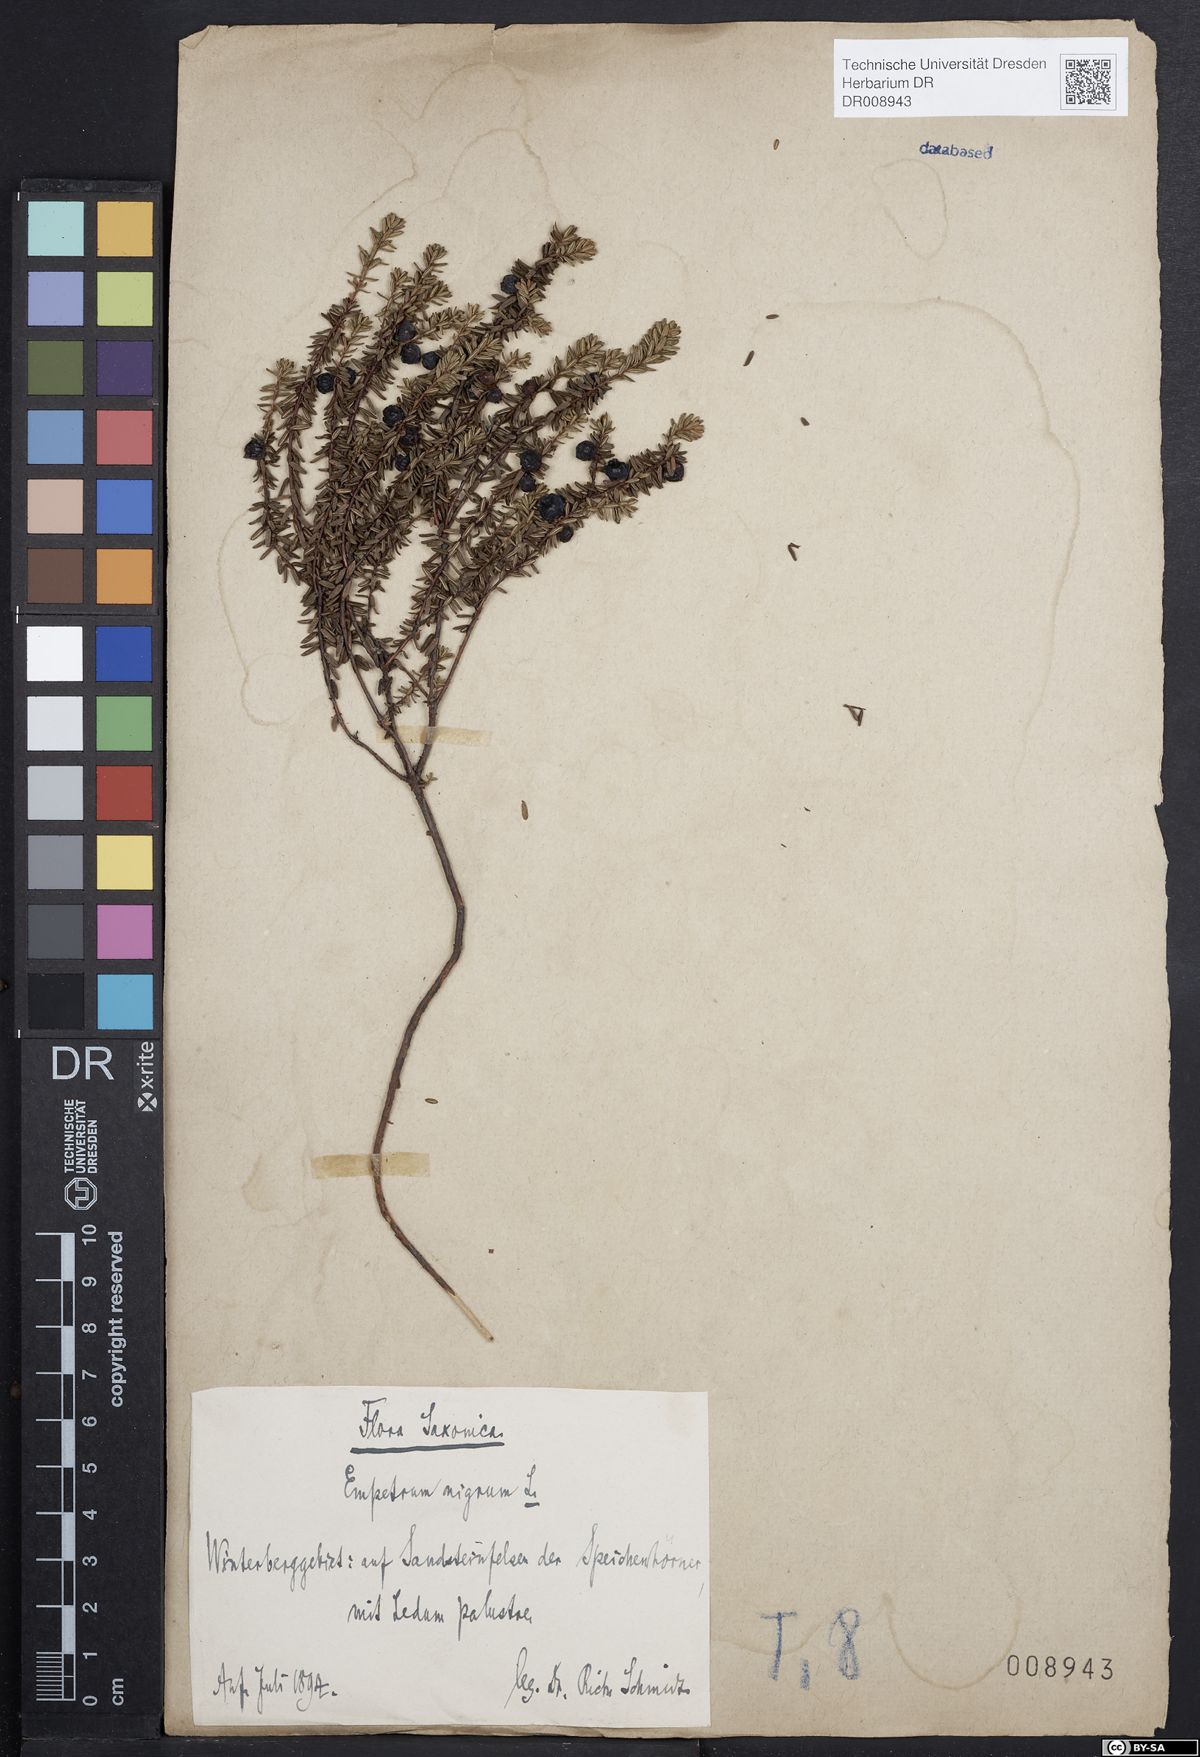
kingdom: Plantae
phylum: Tracheophyta
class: Magnoliopsida
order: Ericales
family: Ericaceae
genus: Empetrum
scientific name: Empetrum nigrum
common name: Black crowberry
